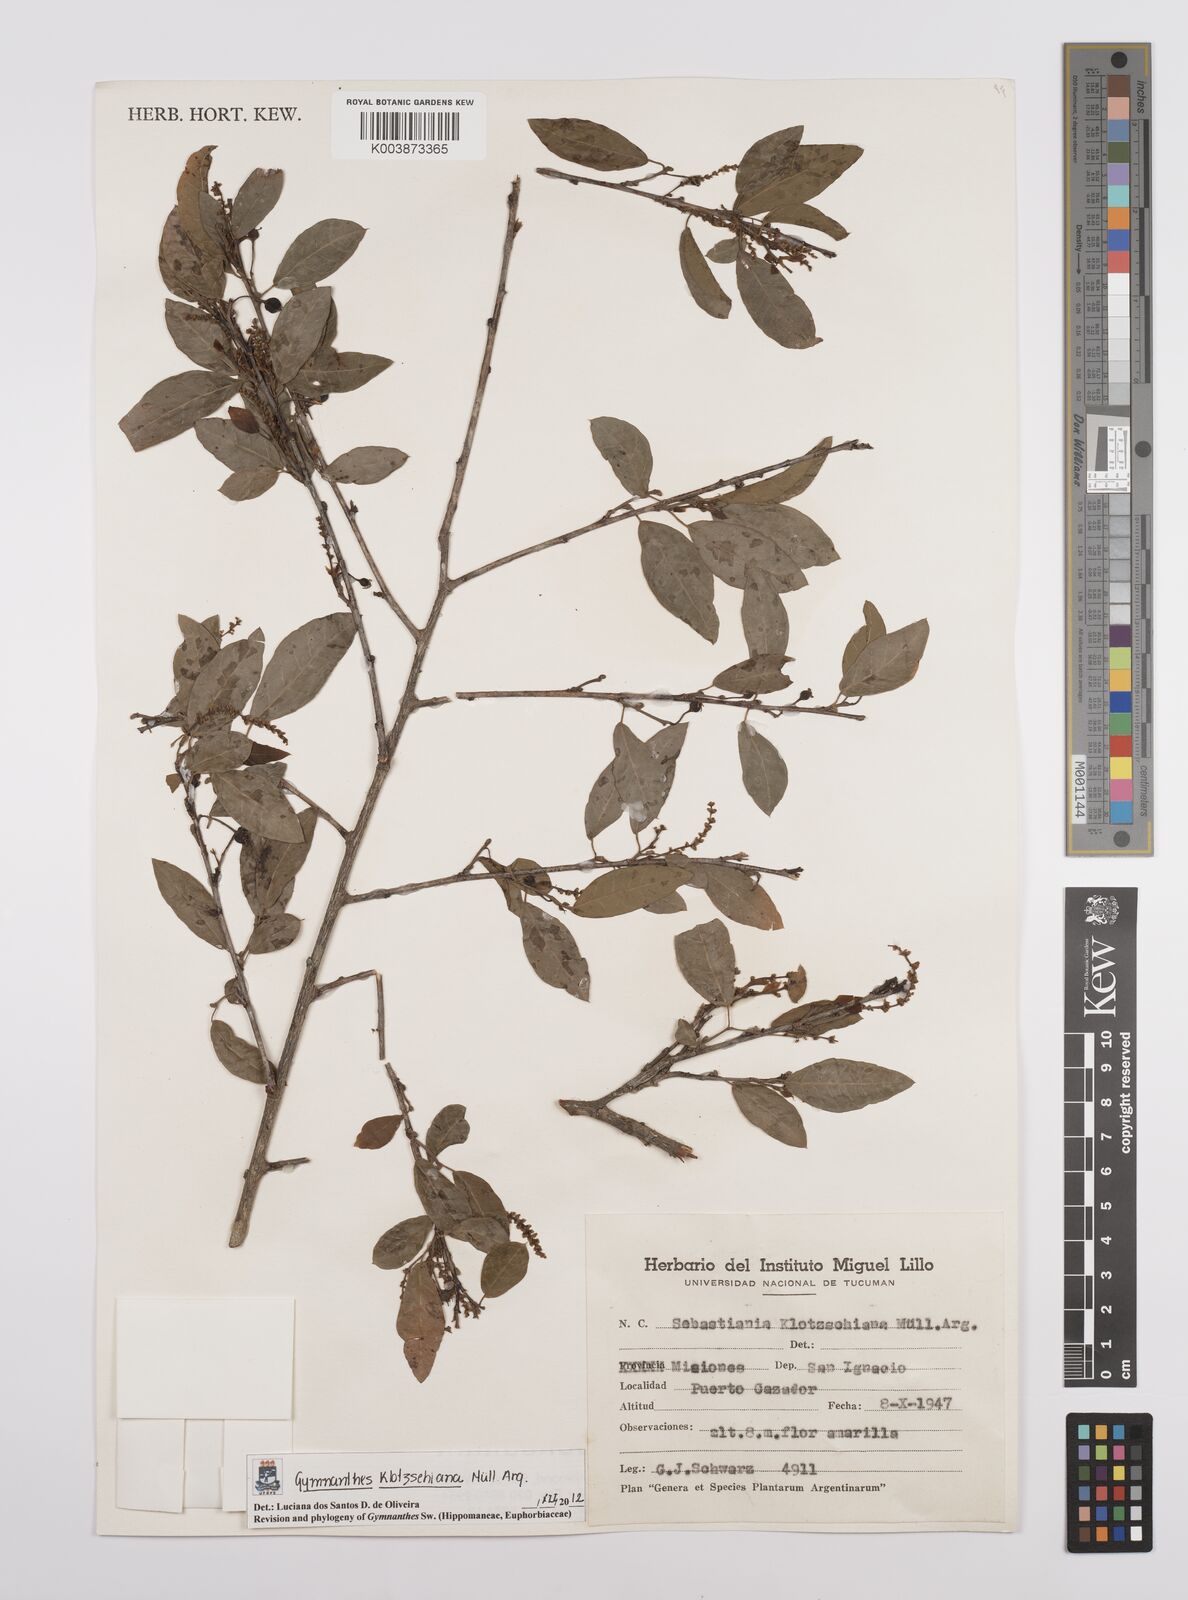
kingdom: Plantae
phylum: Tracheophyta
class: Magnoliopsida
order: Malpighiales
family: Euphorbiaceae
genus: Sebastiania
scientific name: Sebastiania klotzschiana
